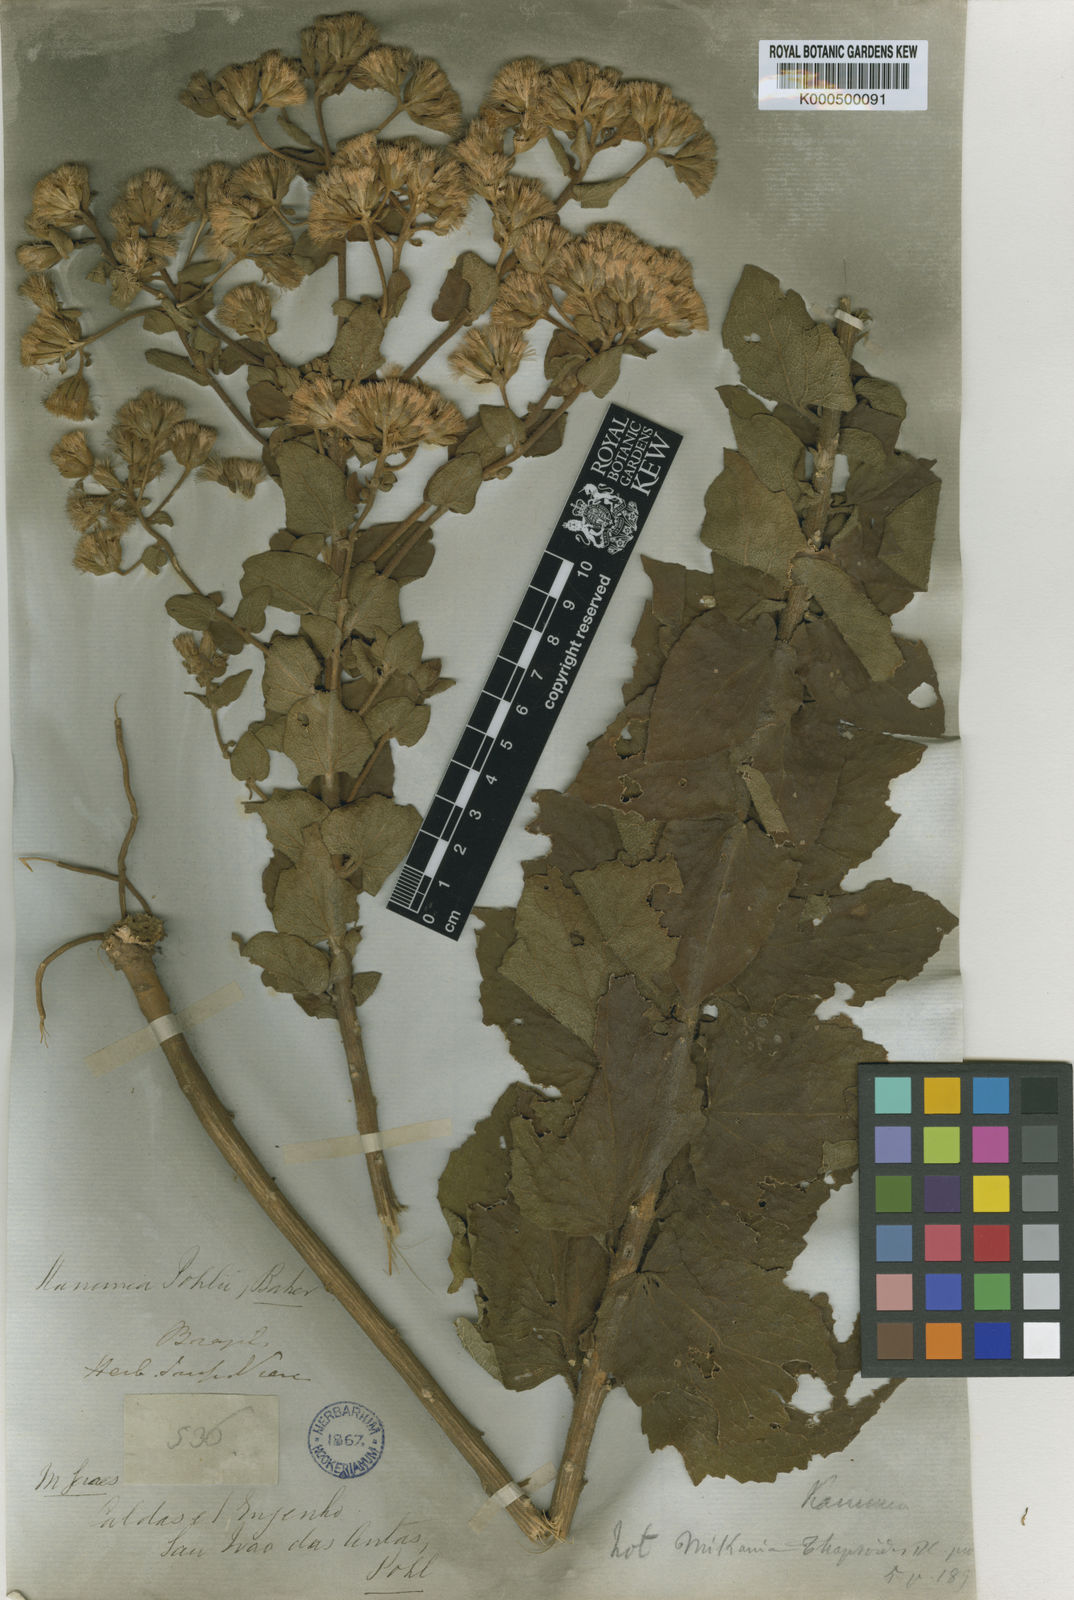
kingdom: Plantae
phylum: Tracheophyta
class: Magnoliopsida
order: Asterales
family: Asteraceae
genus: Mikania
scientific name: Mikania pohlii
